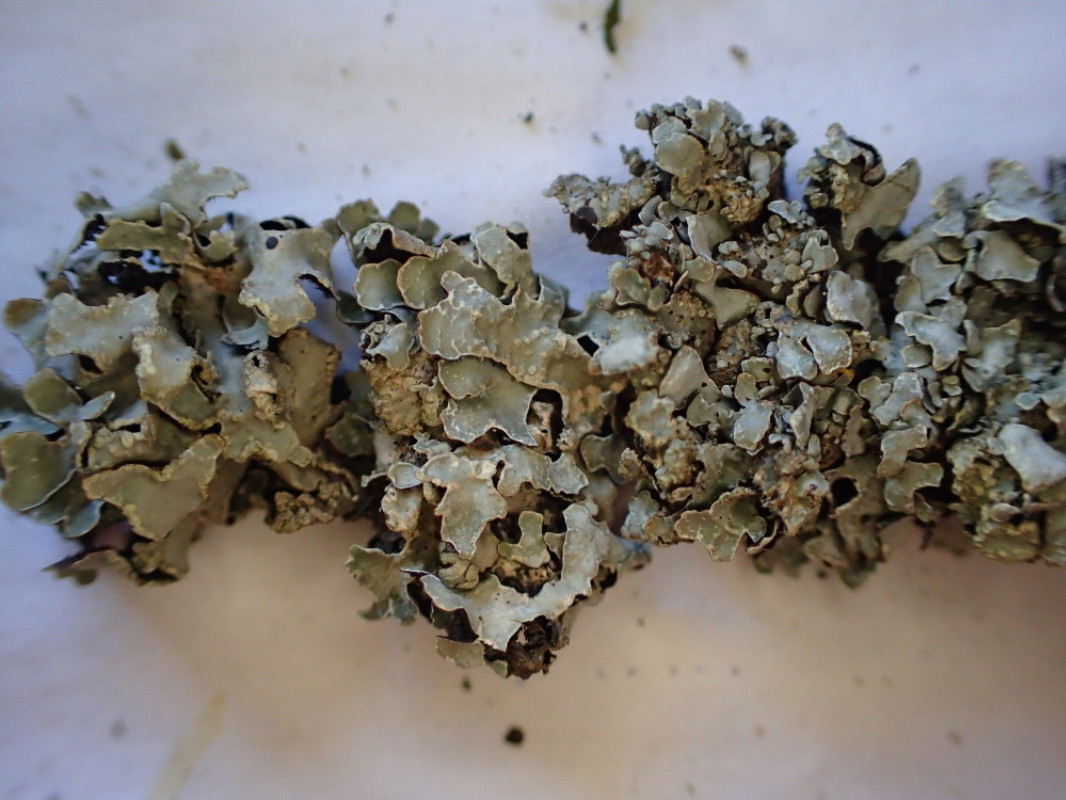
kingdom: Fungi
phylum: Ascomycota
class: Lecanoromycetes
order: Lecanorales
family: Parmeliaceae
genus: Parmelia
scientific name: Parmelia sulcata
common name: rynket skållav
